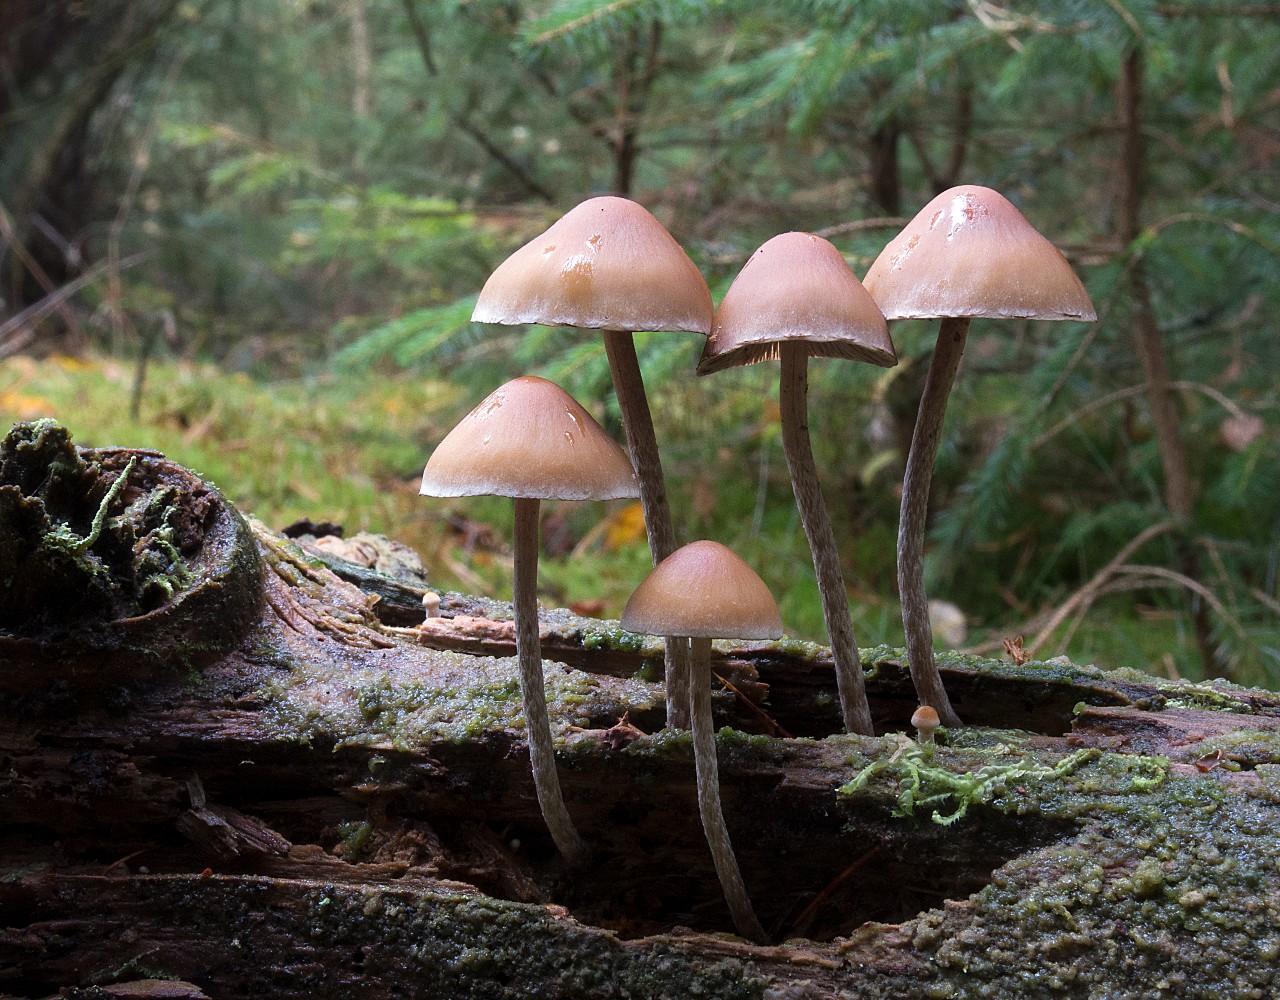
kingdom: Fungi
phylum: Basidiomycota
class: Agaricomycetes
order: Agaricales
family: Strophariaceae
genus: Hypholoma
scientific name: Hypholoma marginatum
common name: enlig svovlhat
